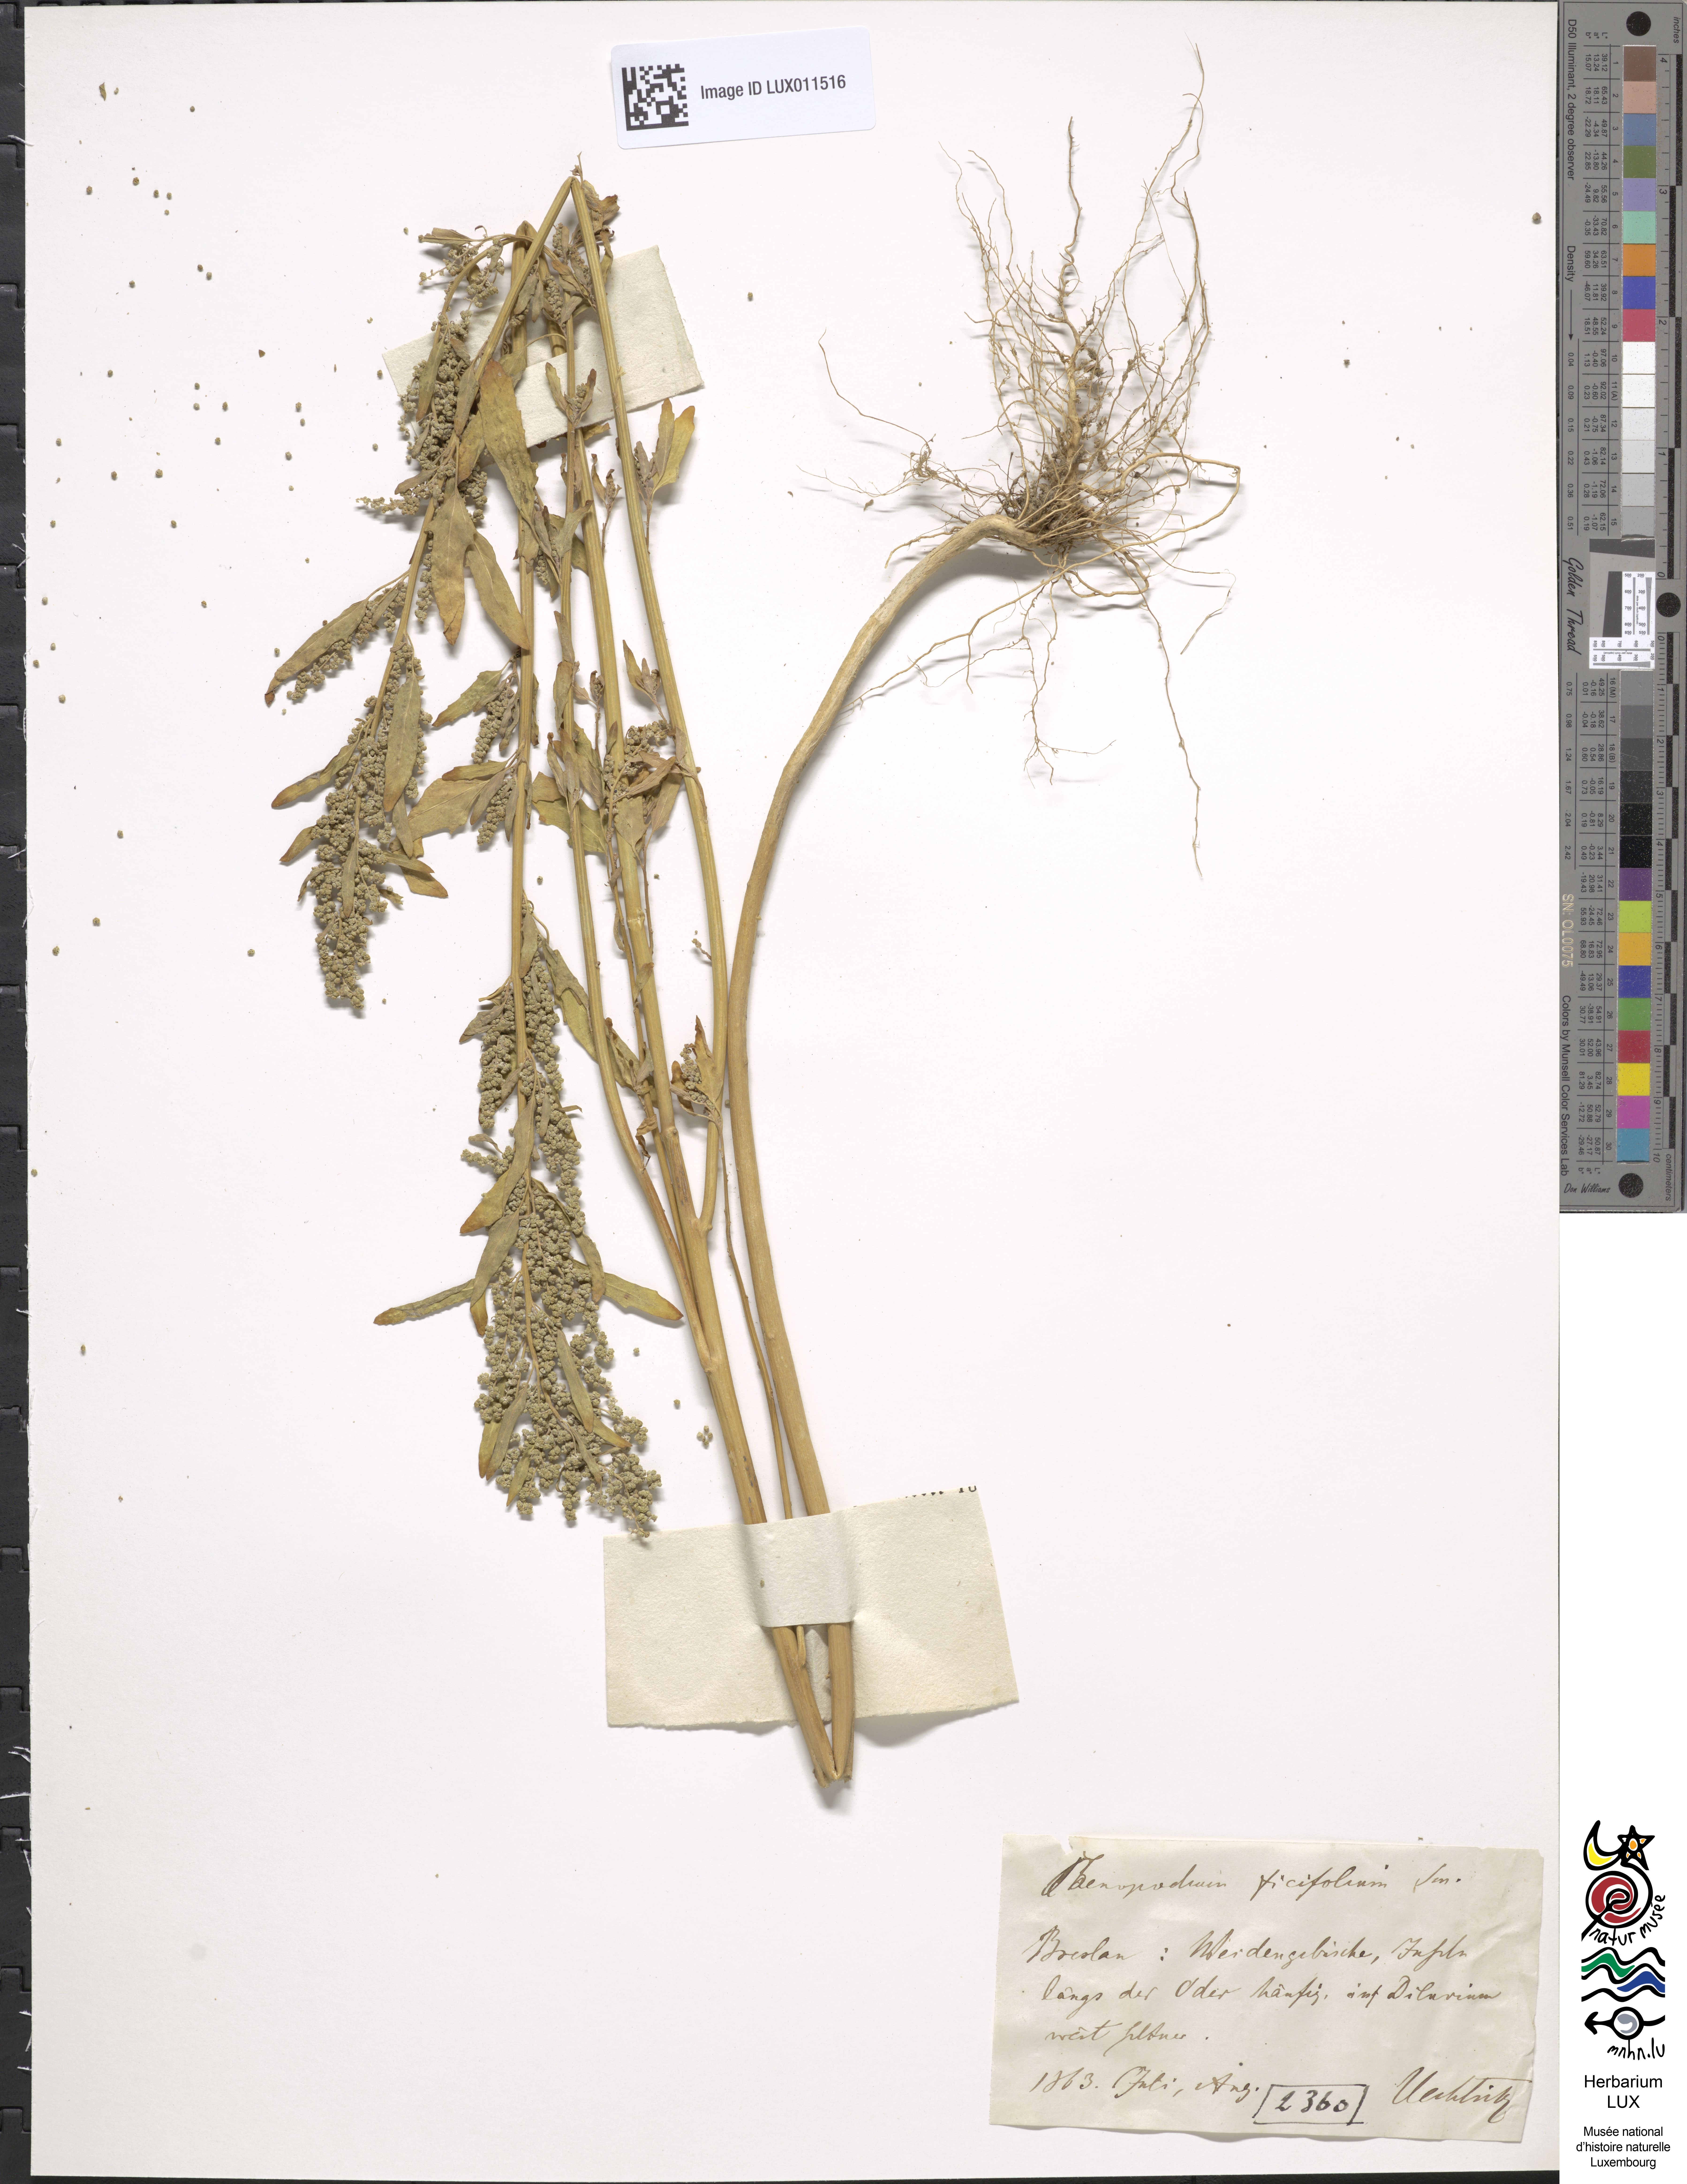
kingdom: Plantae
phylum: Tracheophyta
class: Magnoliopsida
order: Caryophyllales
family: Amaranthaceae
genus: Chenopodium
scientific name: Chenopodium ficifolium
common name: Fig-leaved goosefoot
